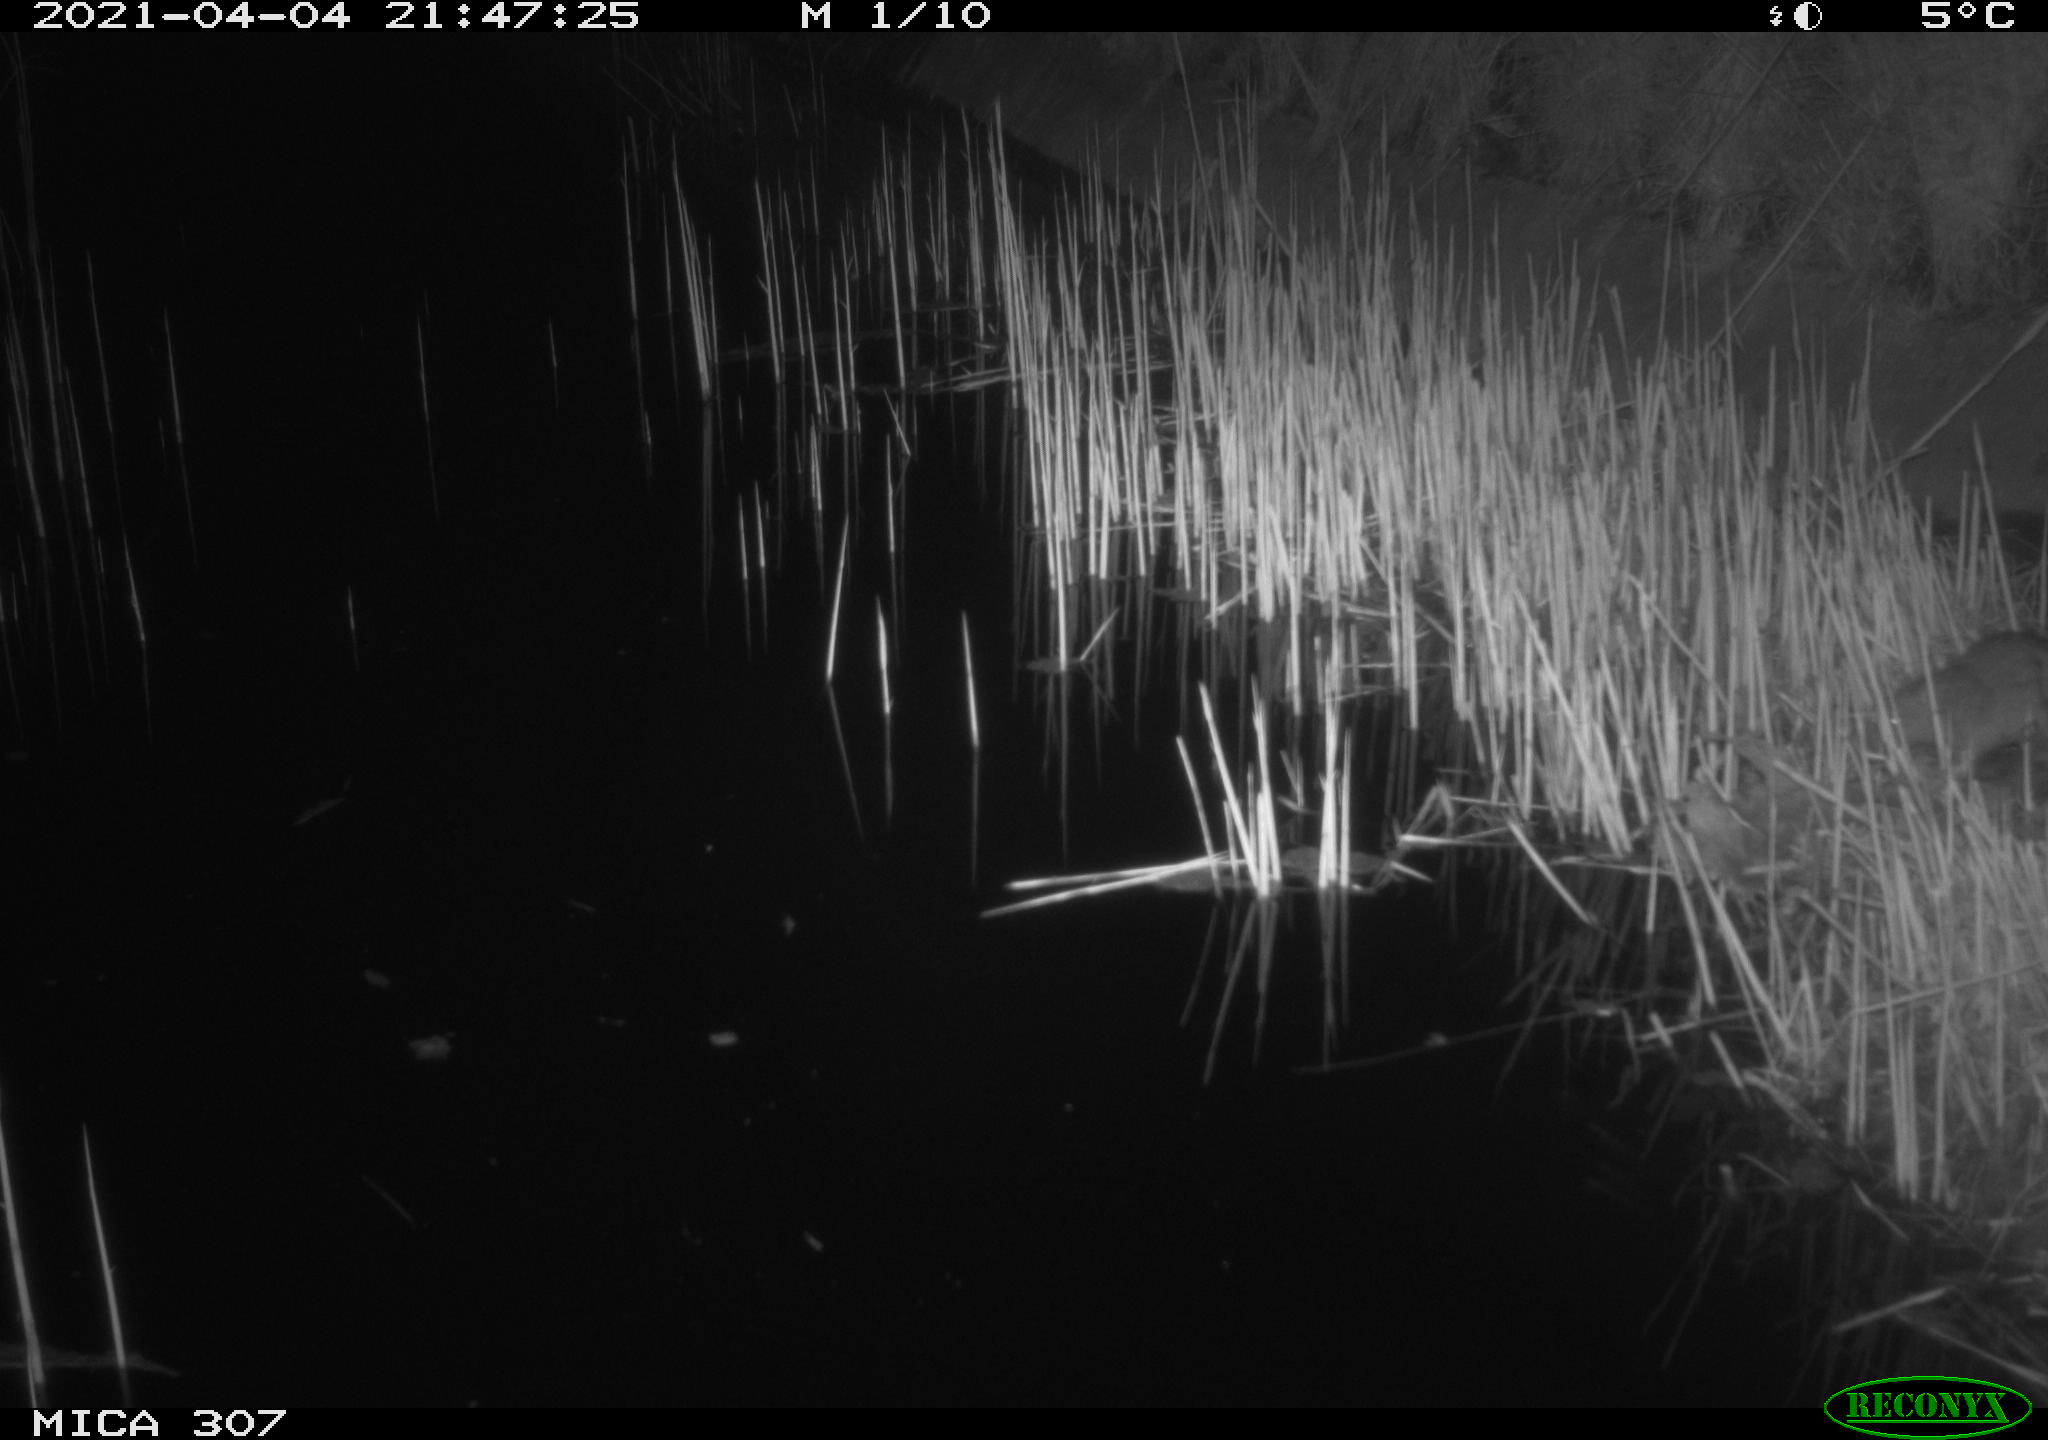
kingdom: Animalia
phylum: Chordata
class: Mammalia
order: Rodentia
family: Muridae
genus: Rattus
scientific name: Rattus norvegicus
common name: Brown rat
